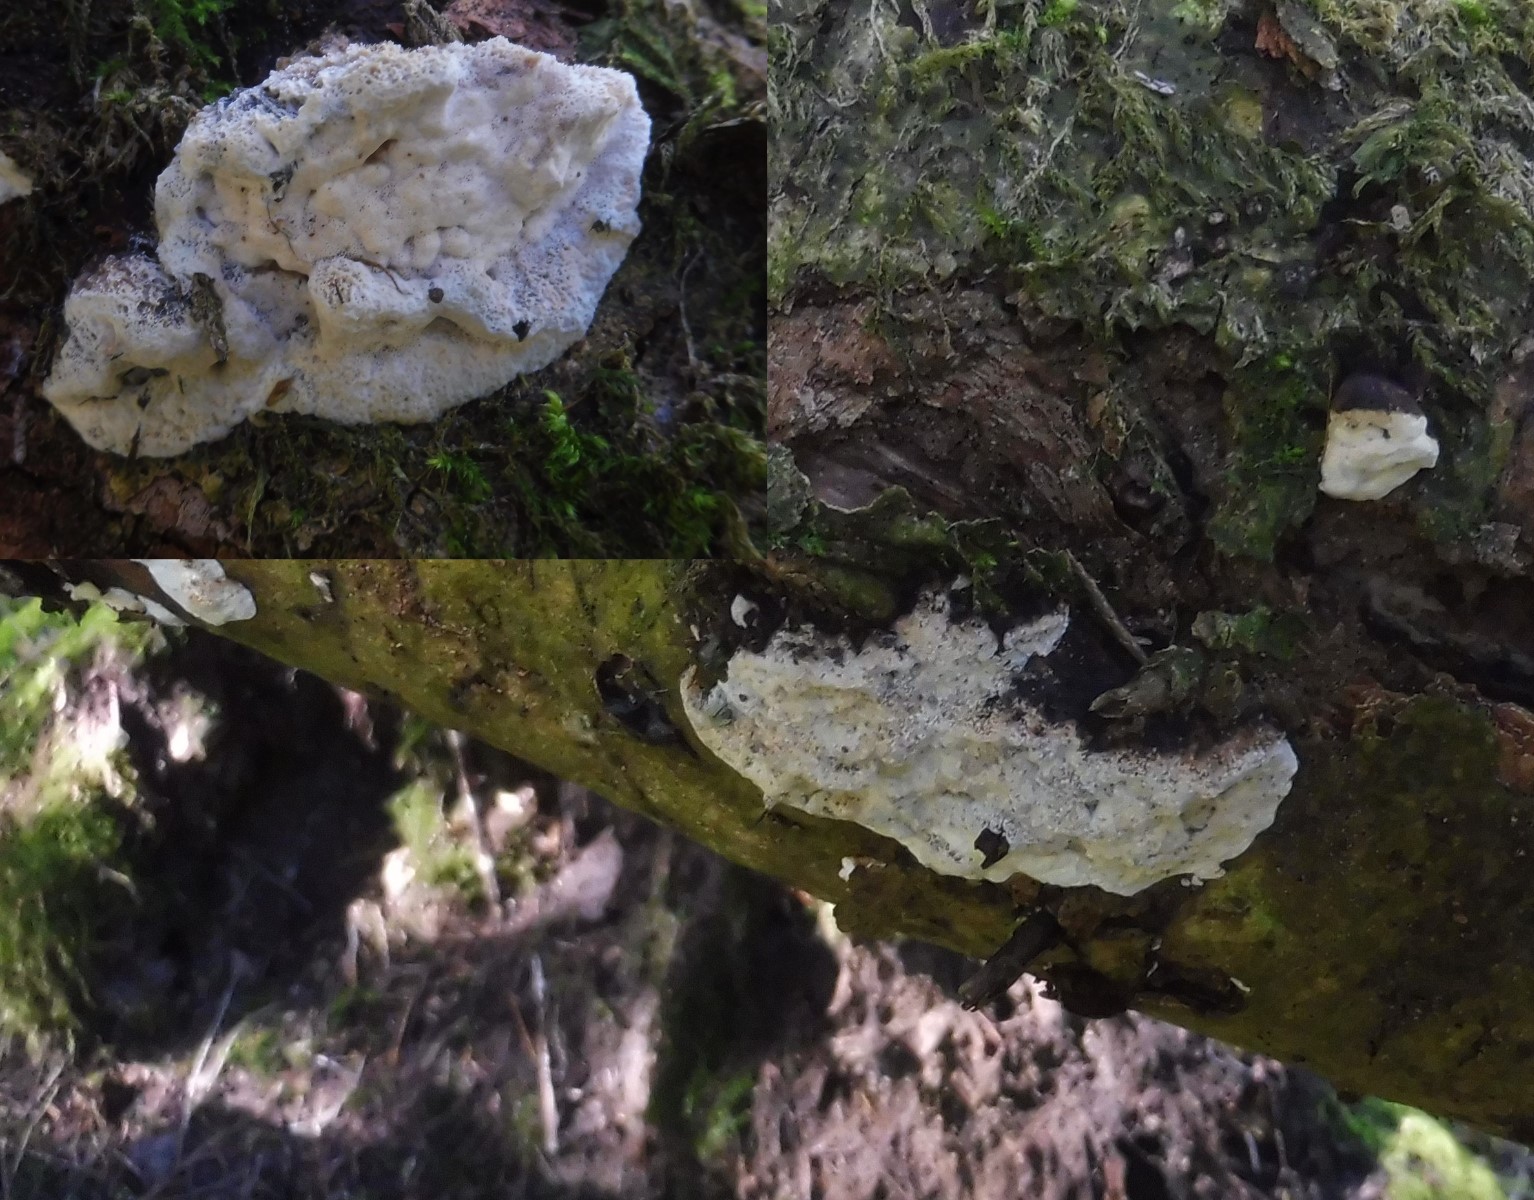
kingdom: Fungi
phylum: Basidiomycota
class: Agaricomycetes
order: Polyporales
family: Incrustoporiaceae
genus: Skeletocutis
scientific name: Skeletocutis nemoralis
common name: stor krystalporesvamp
